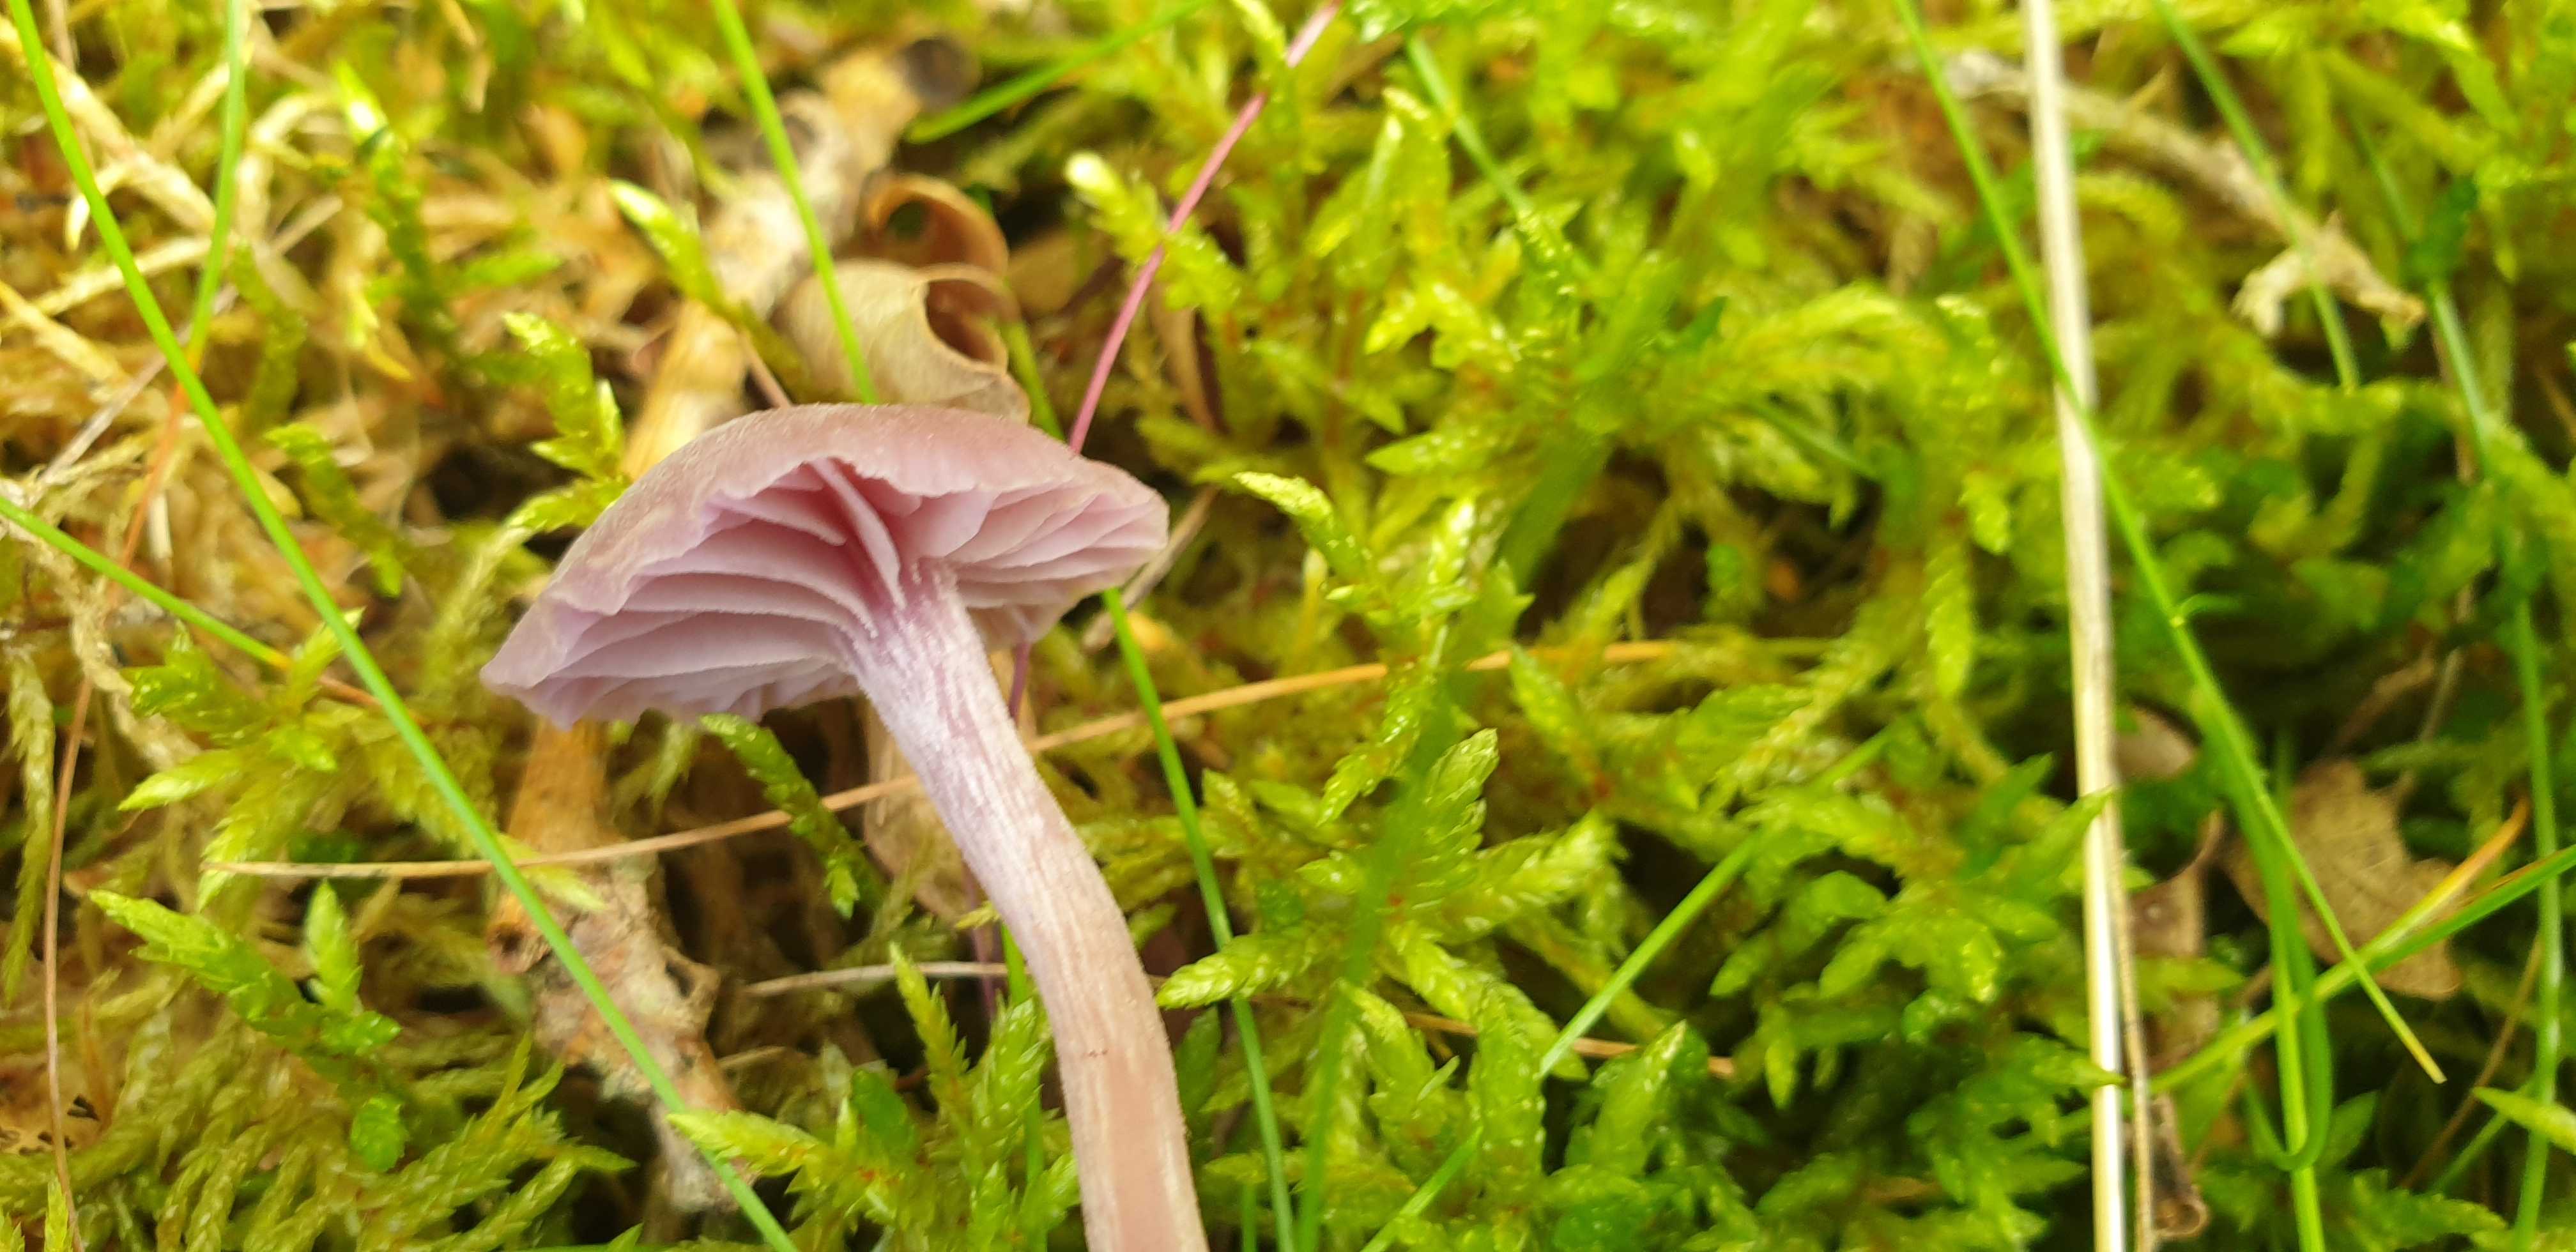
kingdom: Fungi
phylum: Basidiomycota
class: Agaricomycetes
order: Agaricales
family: Hydnangiaceae
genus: Laccaria
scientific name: Laccaria amethystina
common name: violet ametysthat
